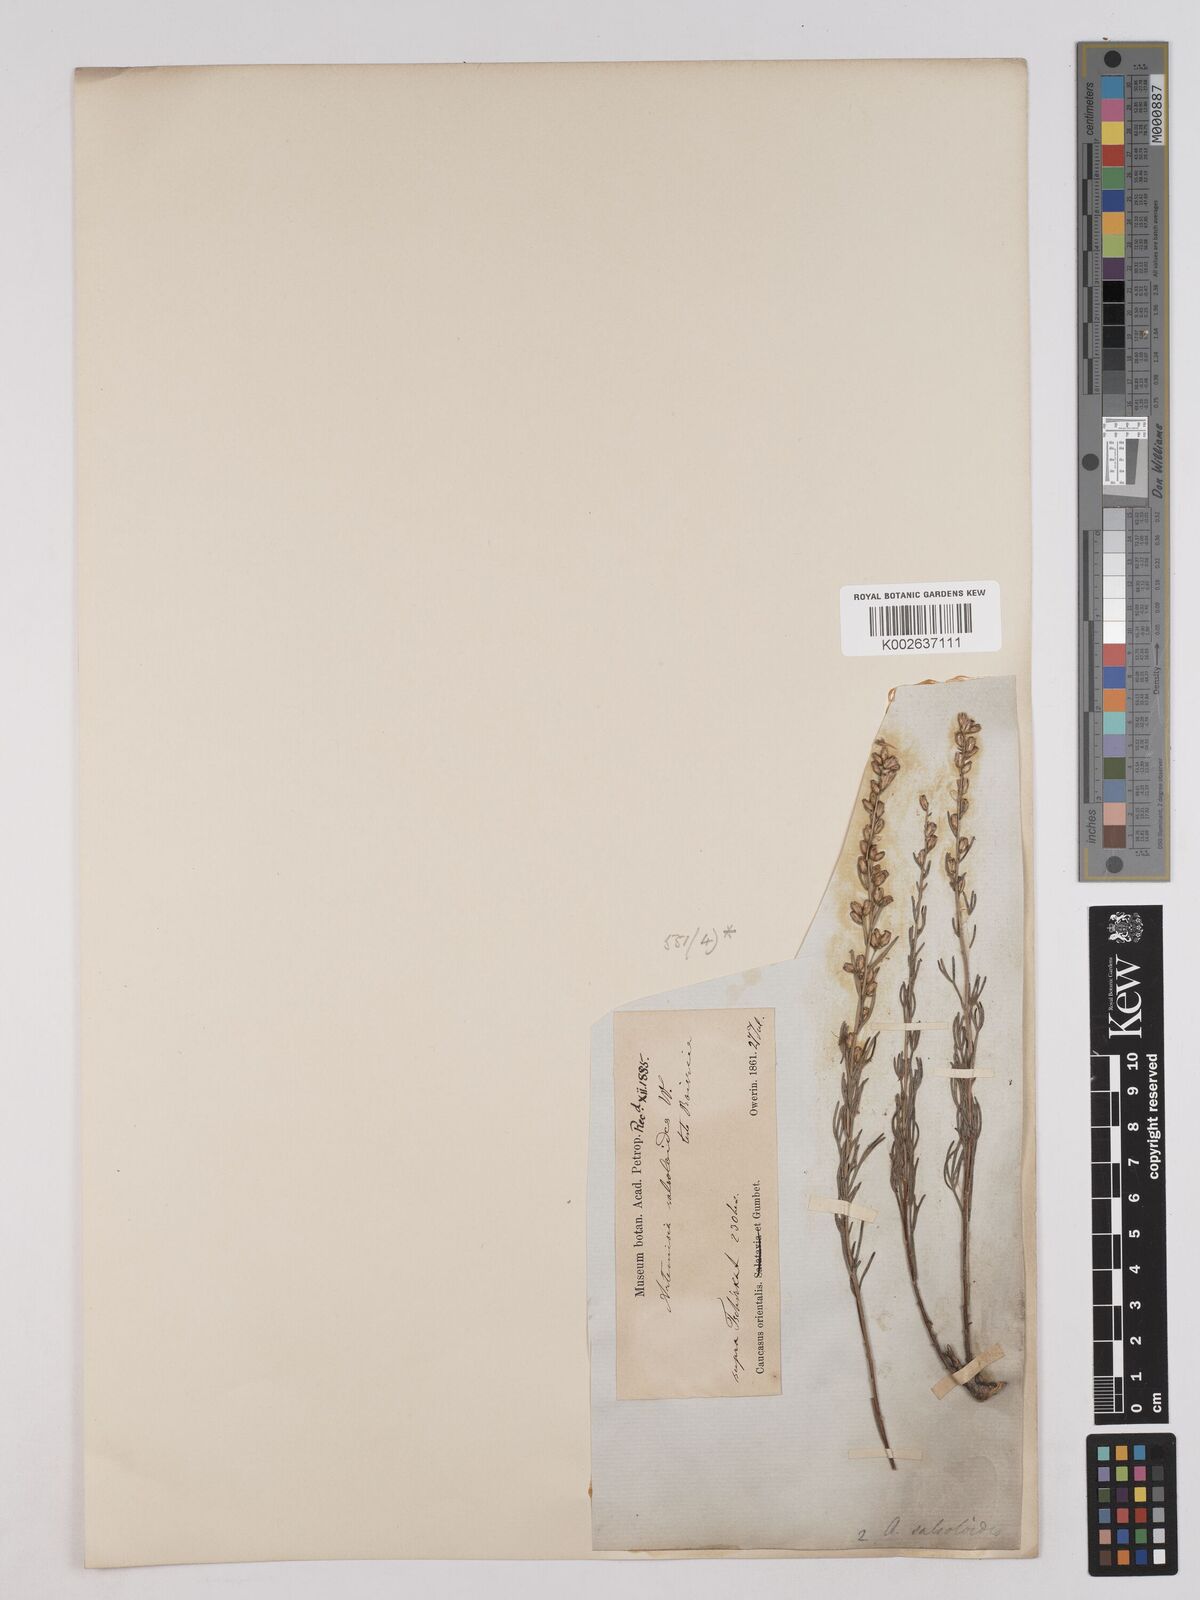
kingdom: Plantae
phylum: Tracheophyta
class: Magnoliopsida
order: Asterales
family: Asteraceae
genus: Artemisia
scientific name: Artemisia salsoloides
